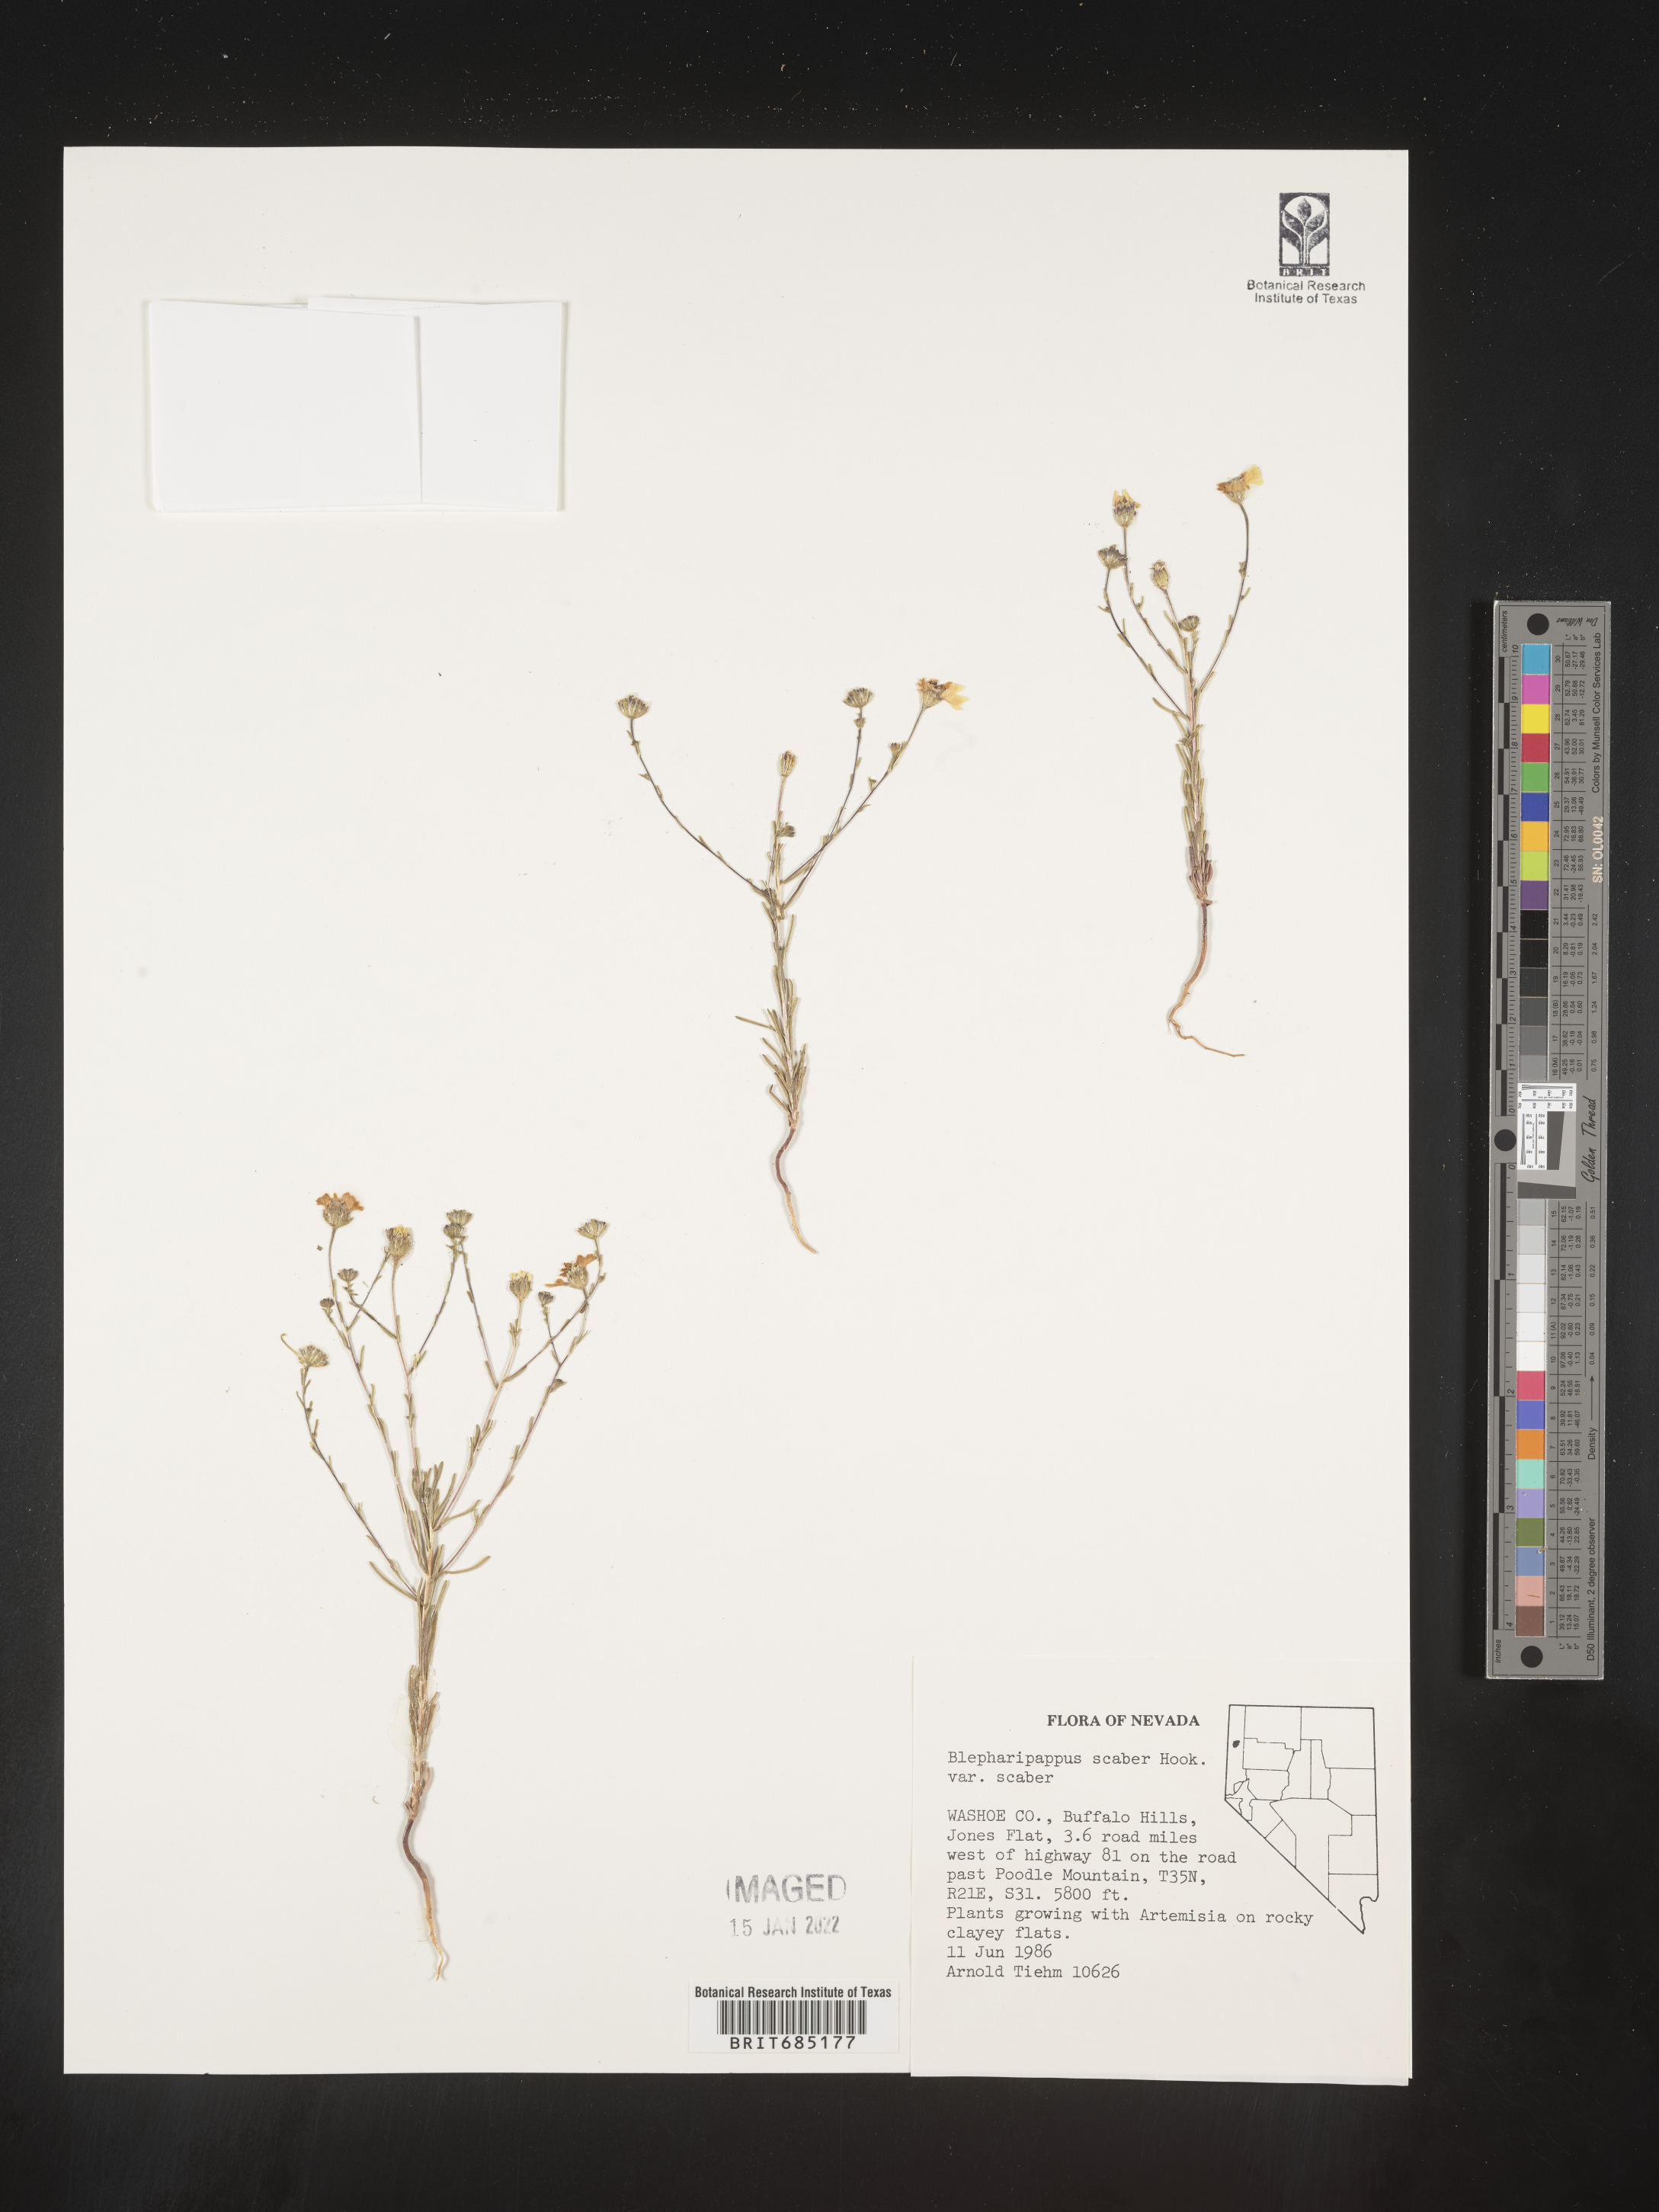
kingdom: Plantae
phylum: Tracheophyta
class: Magnoliopsida
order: Asterales
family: Asteraceae
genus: Blepharipappus
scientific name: Blepharipappus
